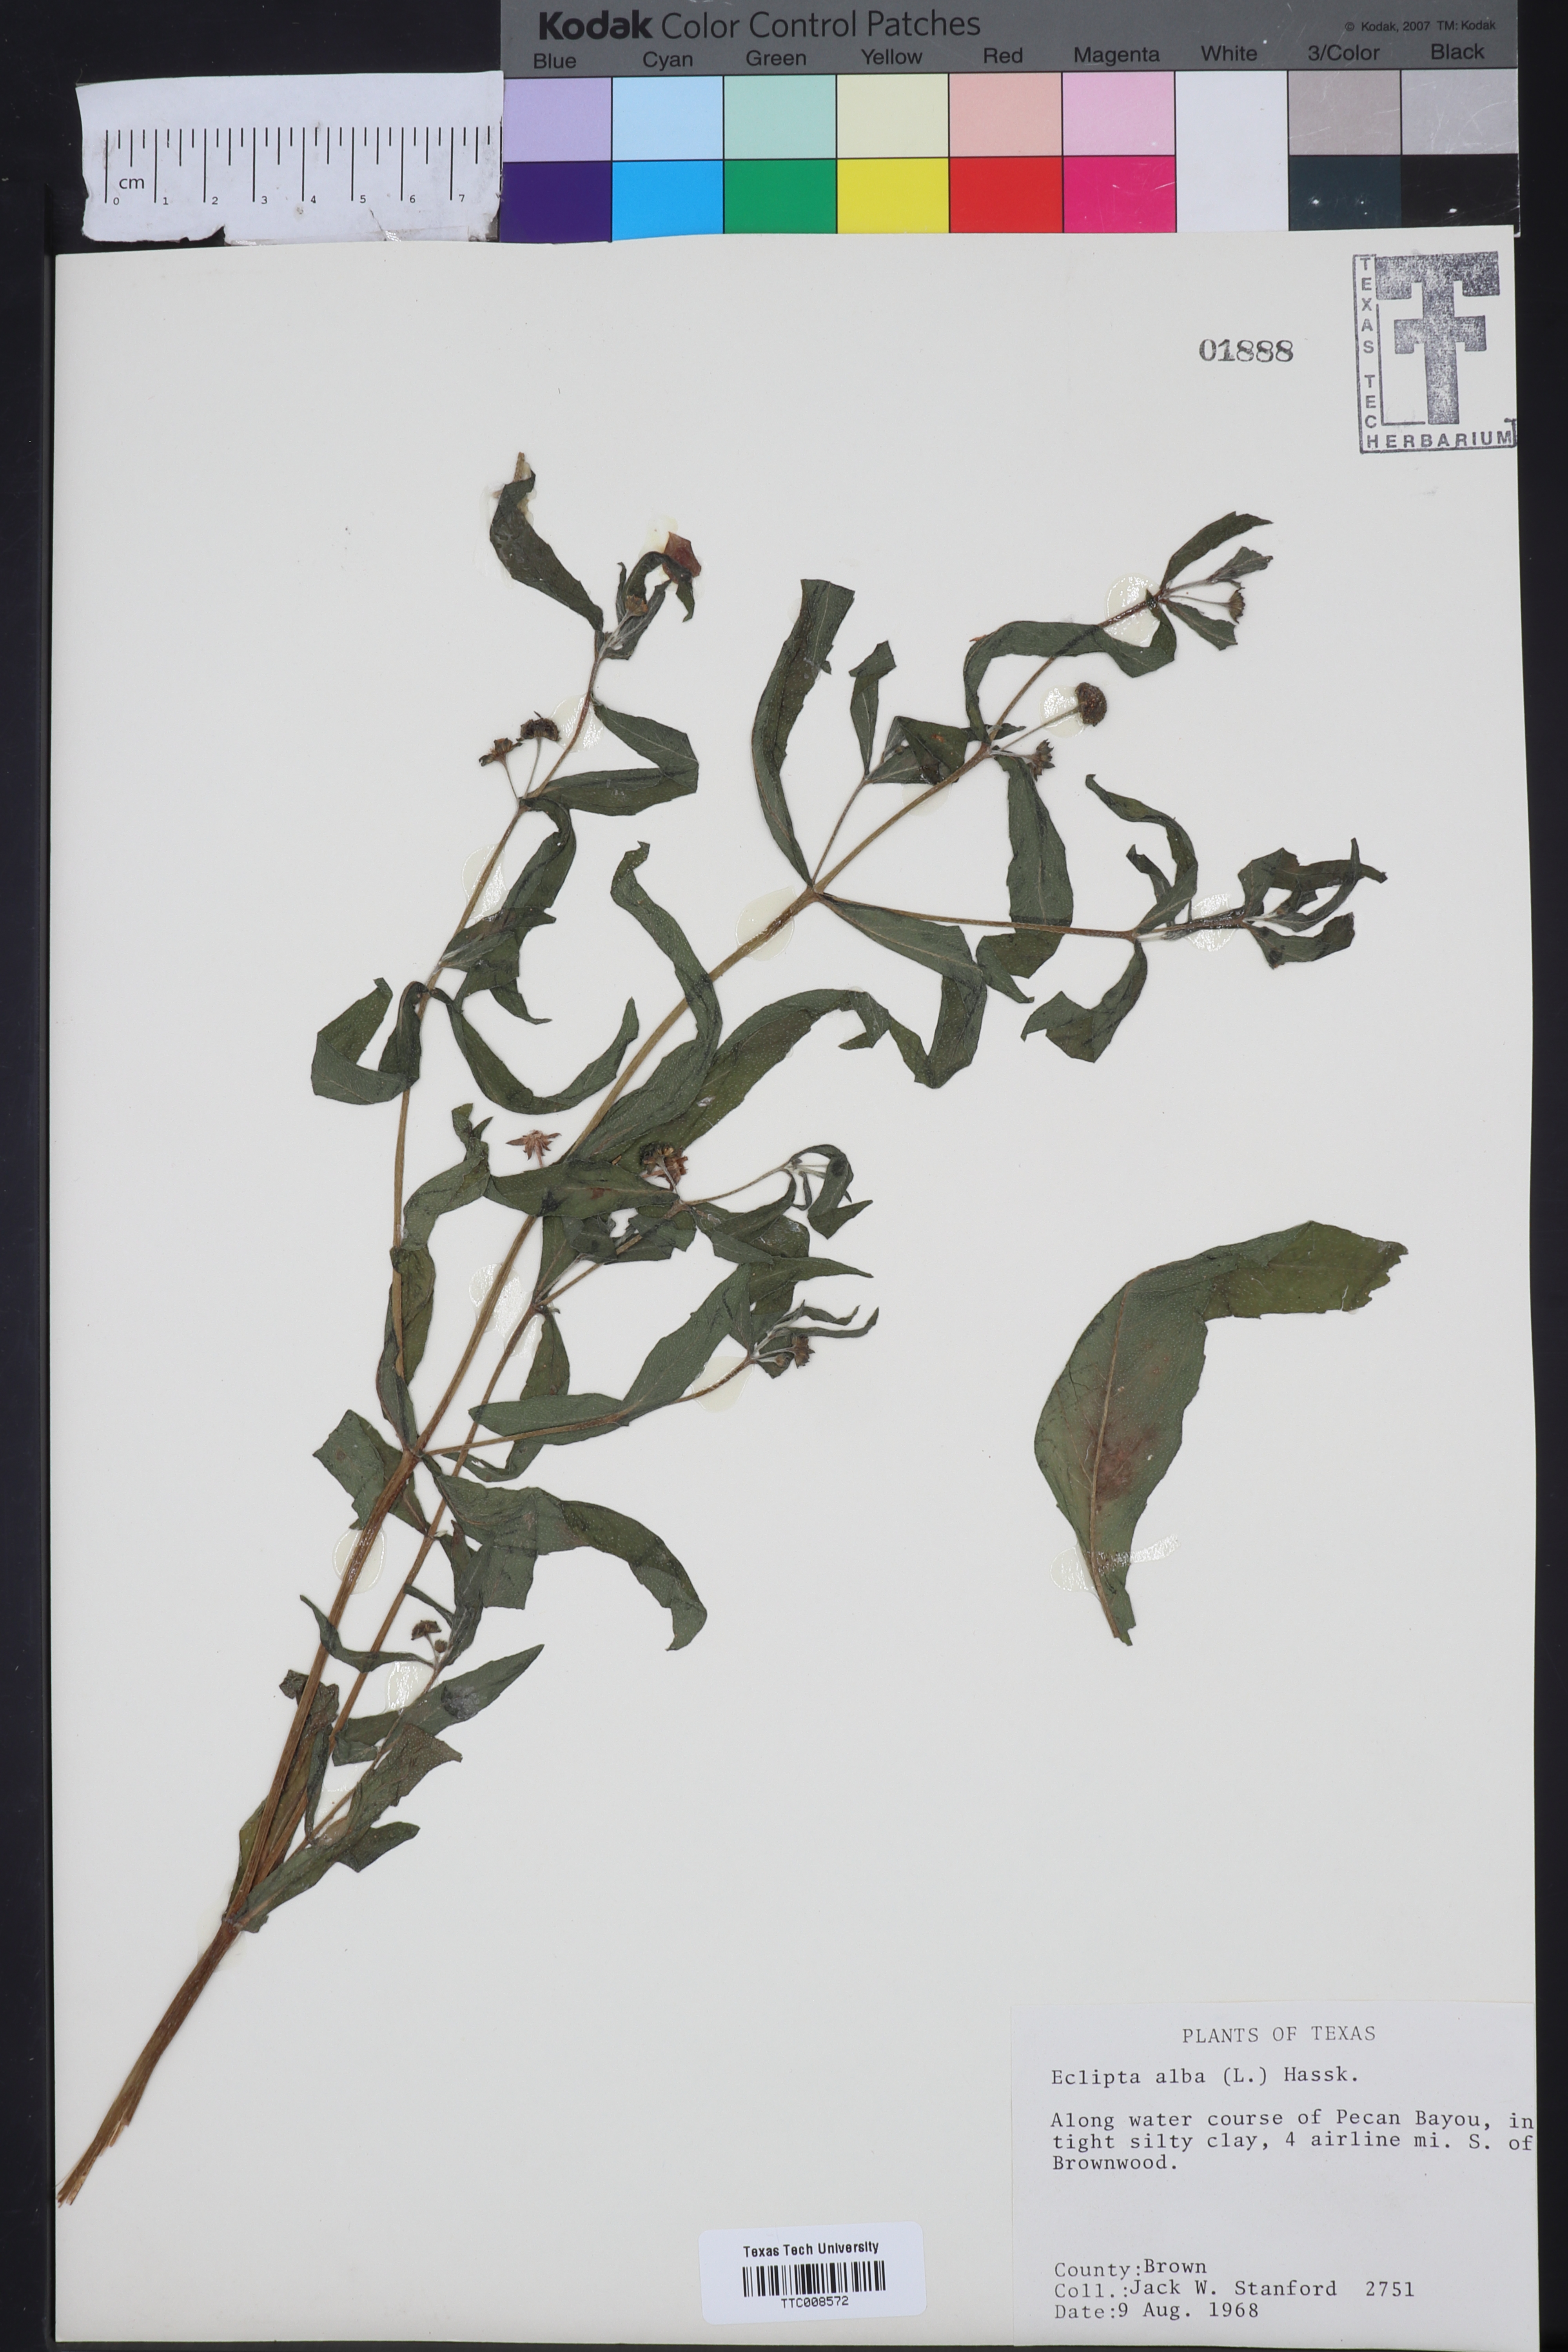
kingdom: Plantae
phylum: Tracheophyta
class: Magnoliopsida
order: Asterales
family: Asteraceae
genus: Eclipta
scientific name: Eclipta alba
